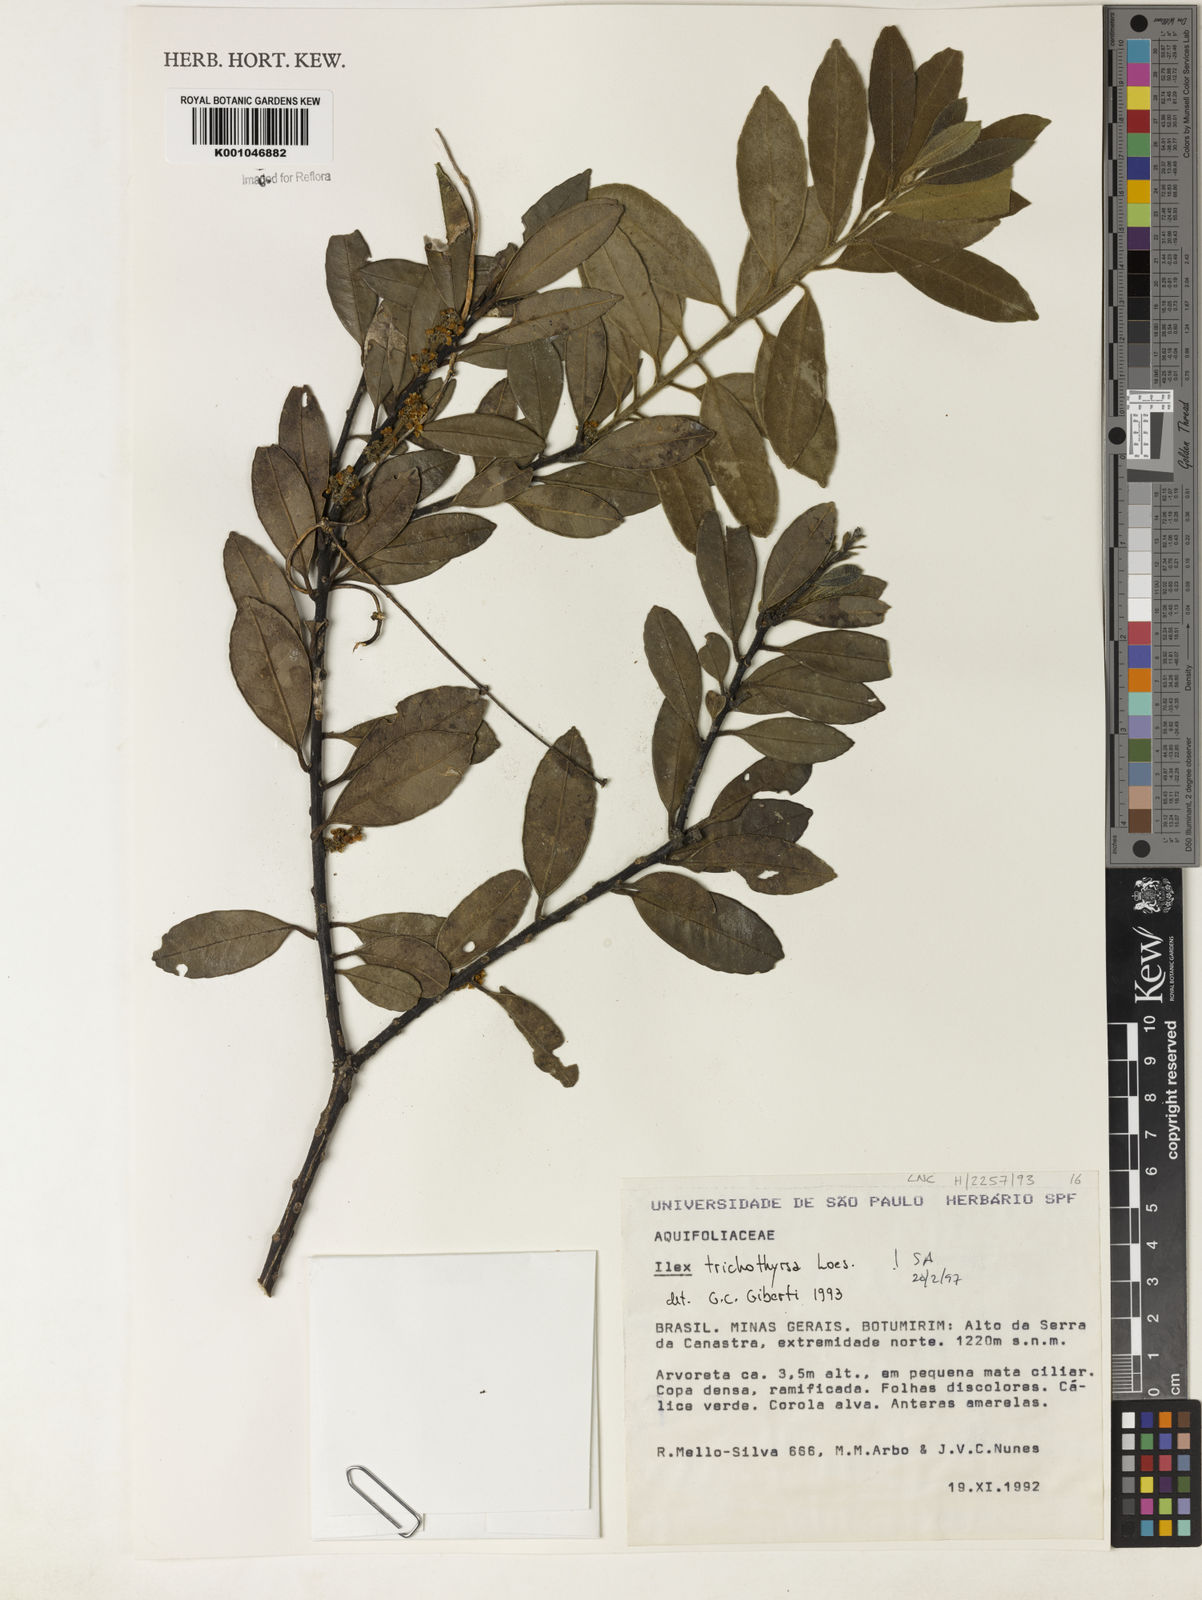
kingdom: Plantae
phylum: Tracheophyta
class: Magnoliopsida
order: Aquifoliales
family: Aquifoliaceae
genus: Ilex
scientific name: Ilex trichothyrsa
